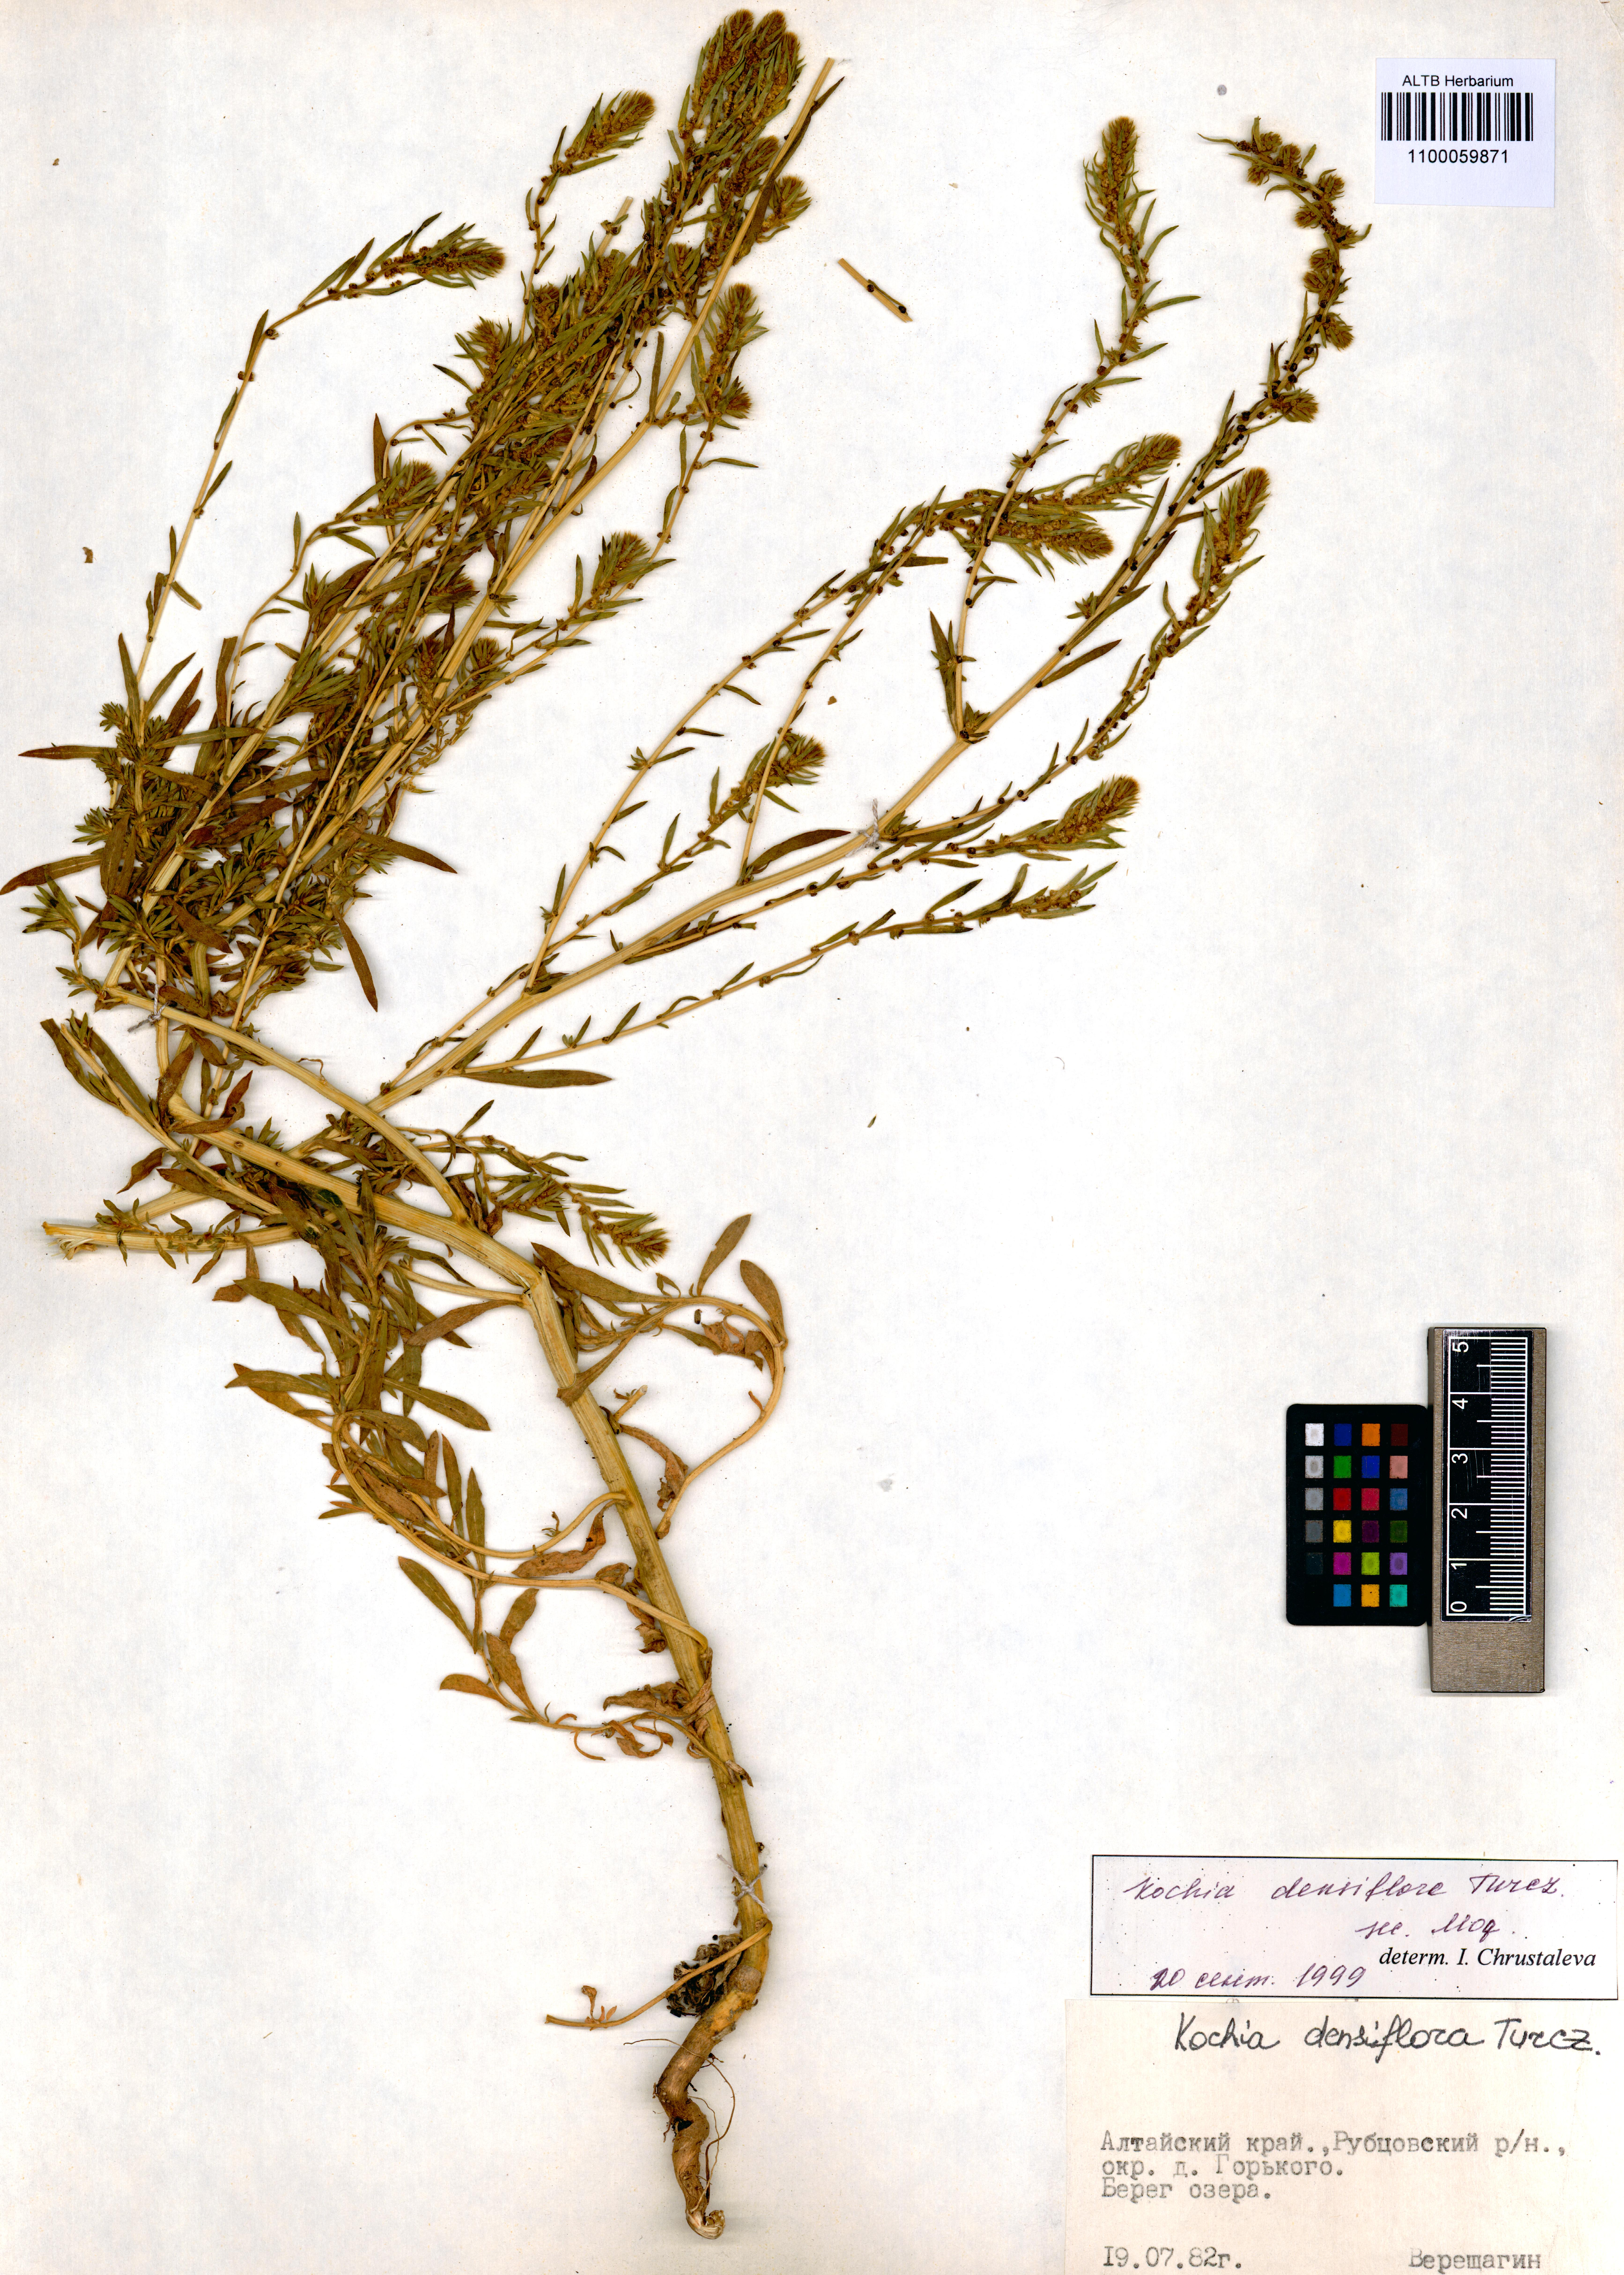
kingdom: Plantae
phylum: Tracheophyta
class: Magnoliopsida
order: Caryophyllales
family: Amaranthaceae
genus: Bassia
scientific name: Bassia scoparia
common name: Belvedere
